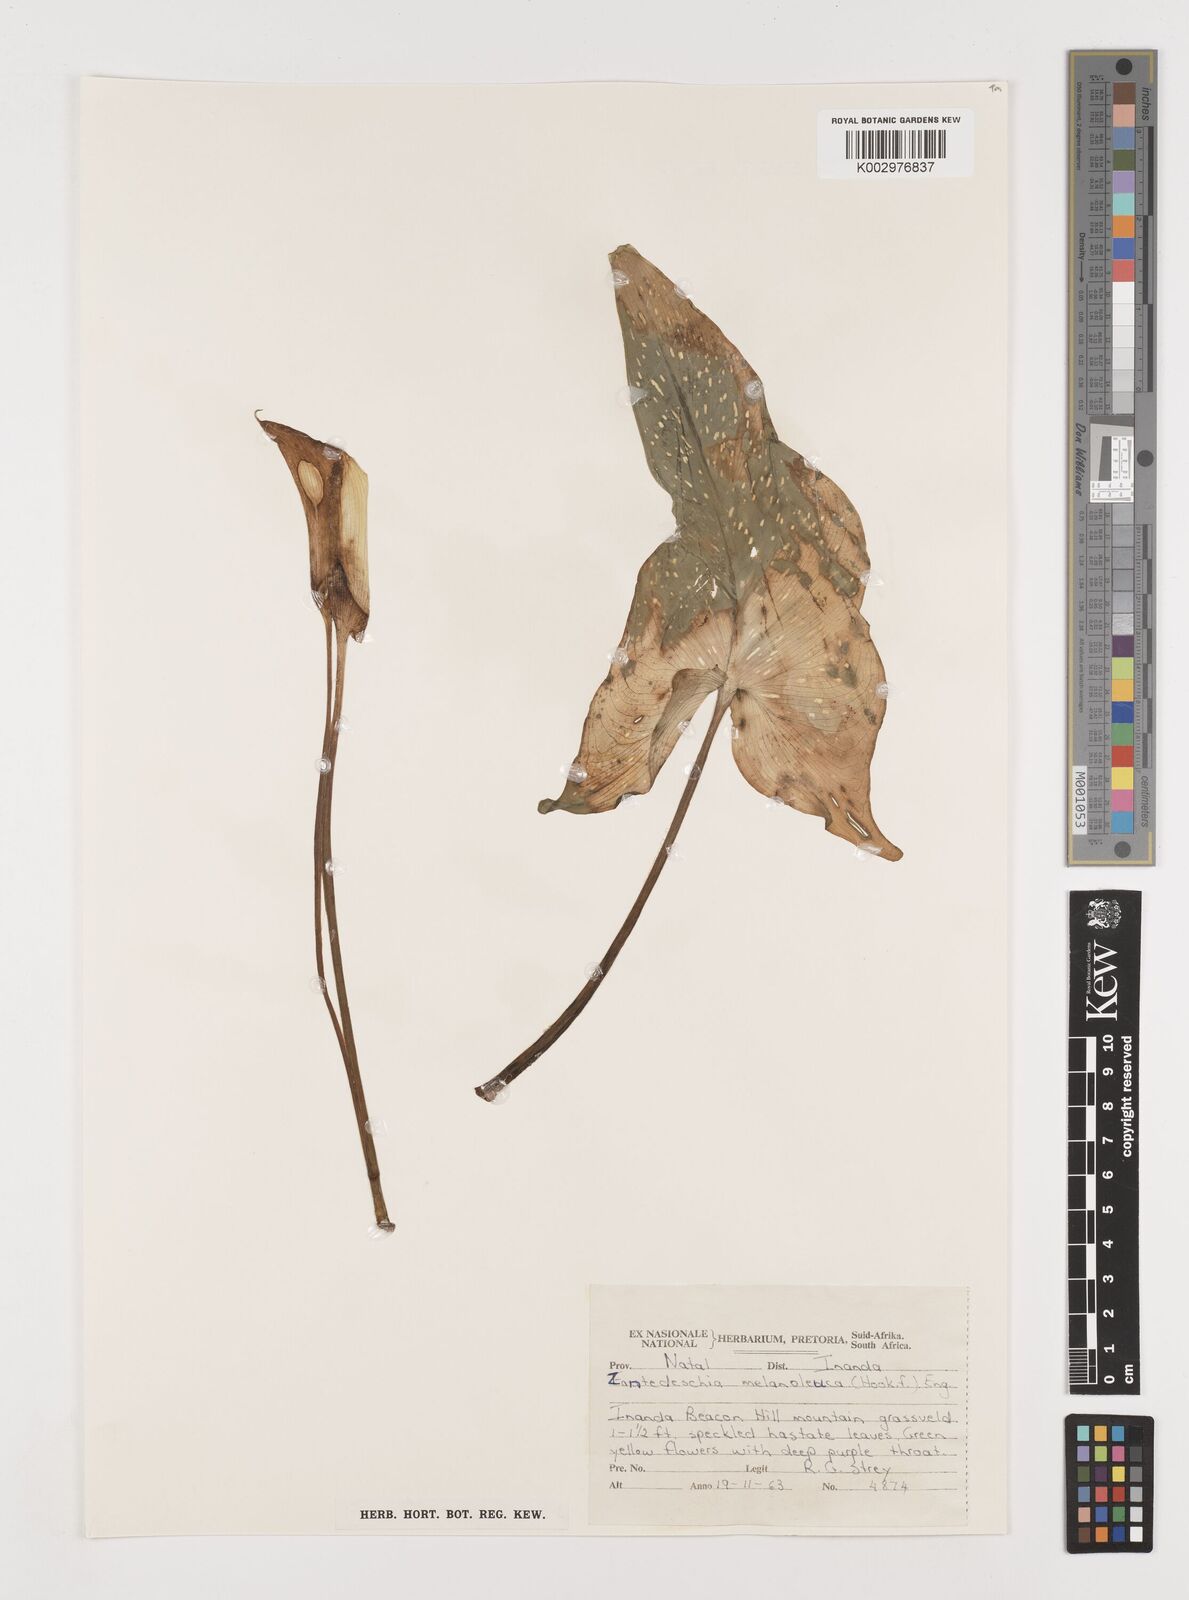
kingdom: Plantae
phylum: Tracheophyta
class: Liliopsida
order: Alismatales
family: Araceae
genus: Zantedeschia
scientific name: Zantedeschia albomaculata
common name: Spotted calla lily
